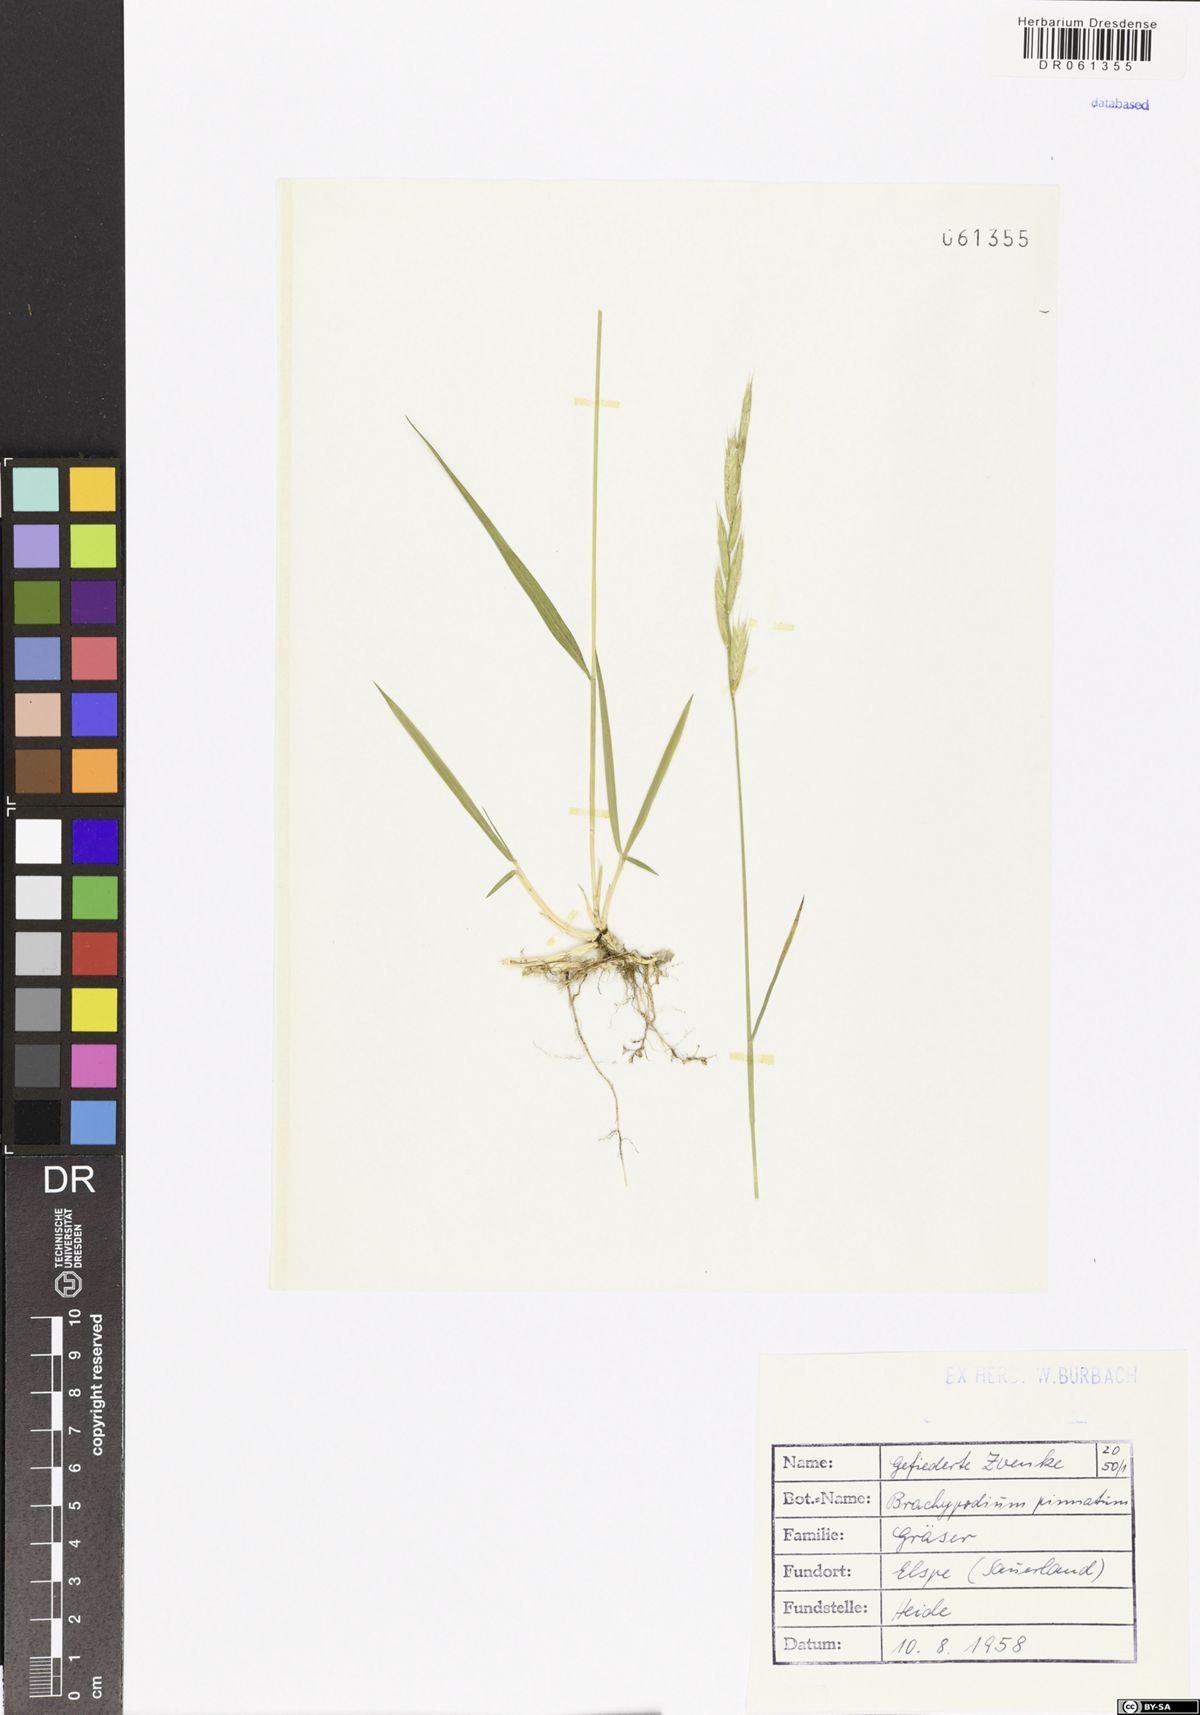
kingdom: Plantae
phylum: Tracheophyta
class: Liliopsida
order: Poales
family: Poaceae
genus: Brachypodium
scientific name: Brachypodium pinnatum
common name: Tor grass
